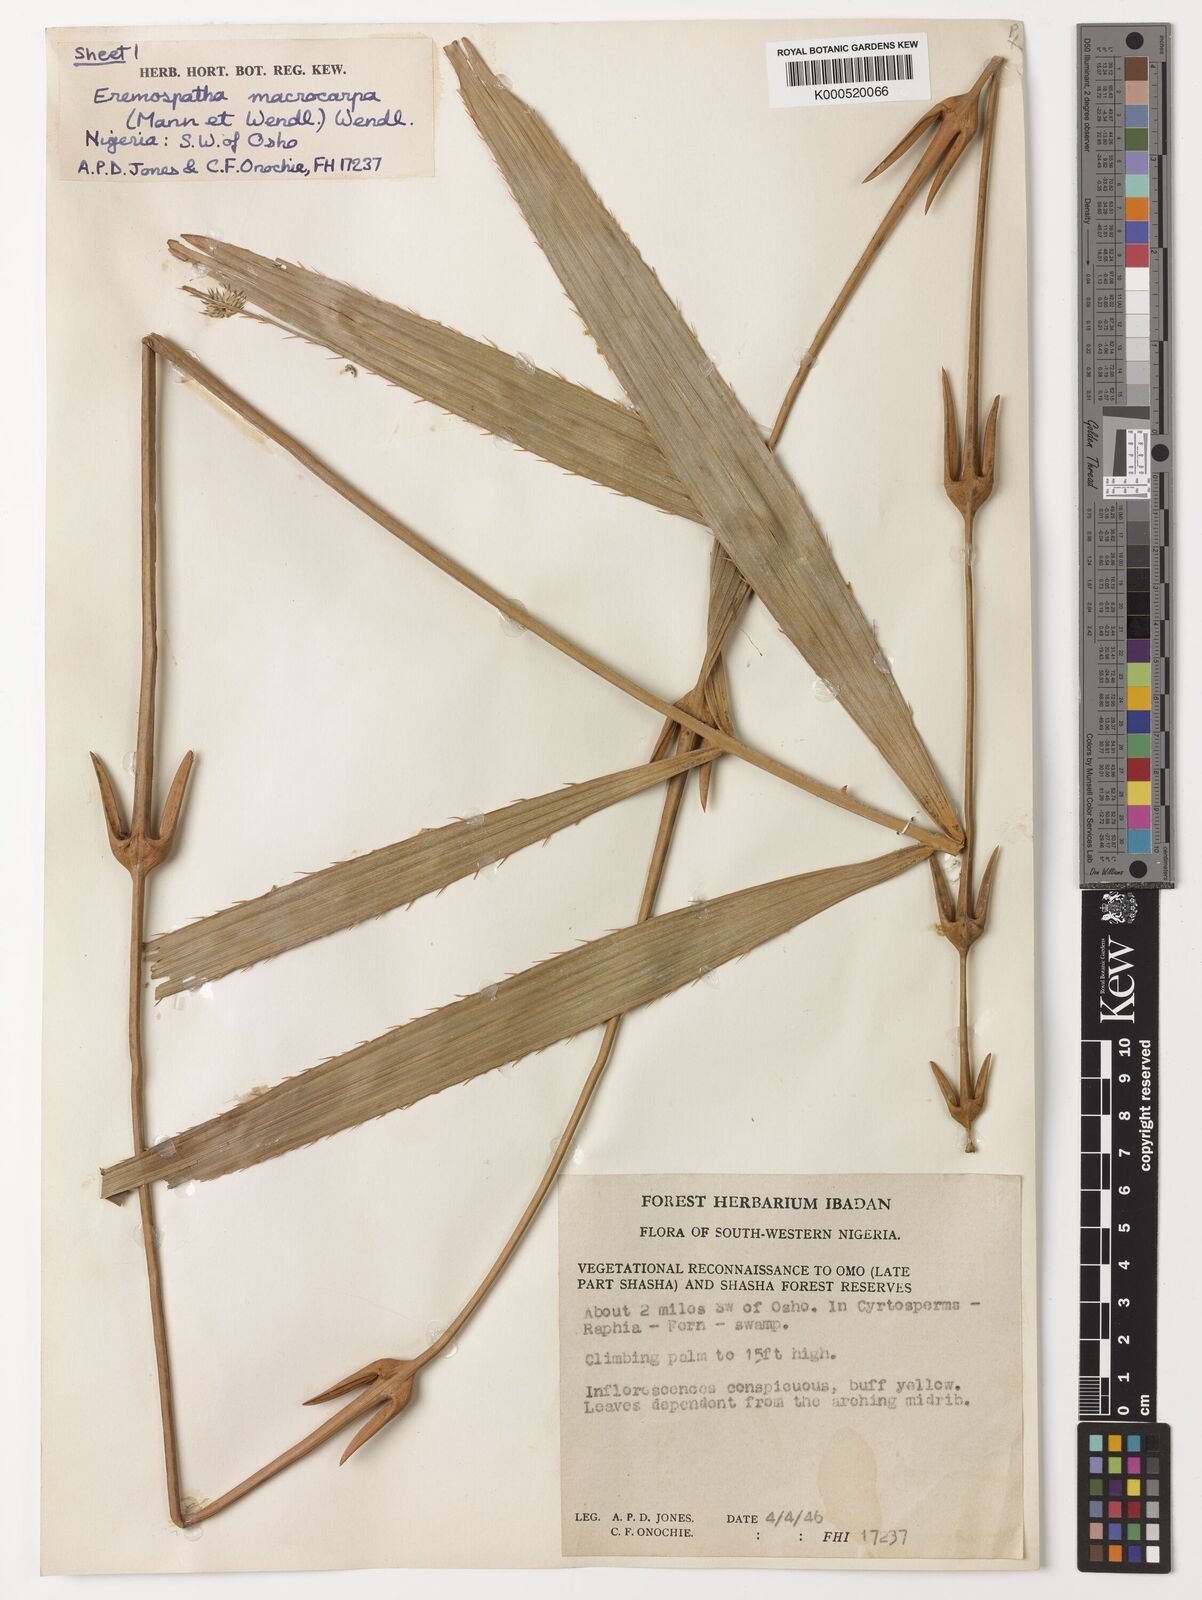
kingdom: Plantae
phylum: Tracheophyta
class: Liliopsida
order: Arecales
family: Arecaceae
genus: Eremospatha
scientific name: Eremospatha
